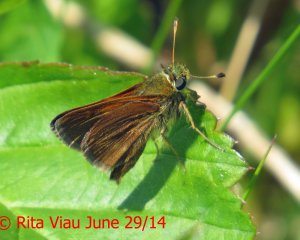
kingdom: Animalia
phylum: Arthropoda
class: Insecta
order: Lepidoptera
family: Hesperiidae
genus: Polites
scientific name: Polites themistocles
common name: Tawny-edged Skipper
